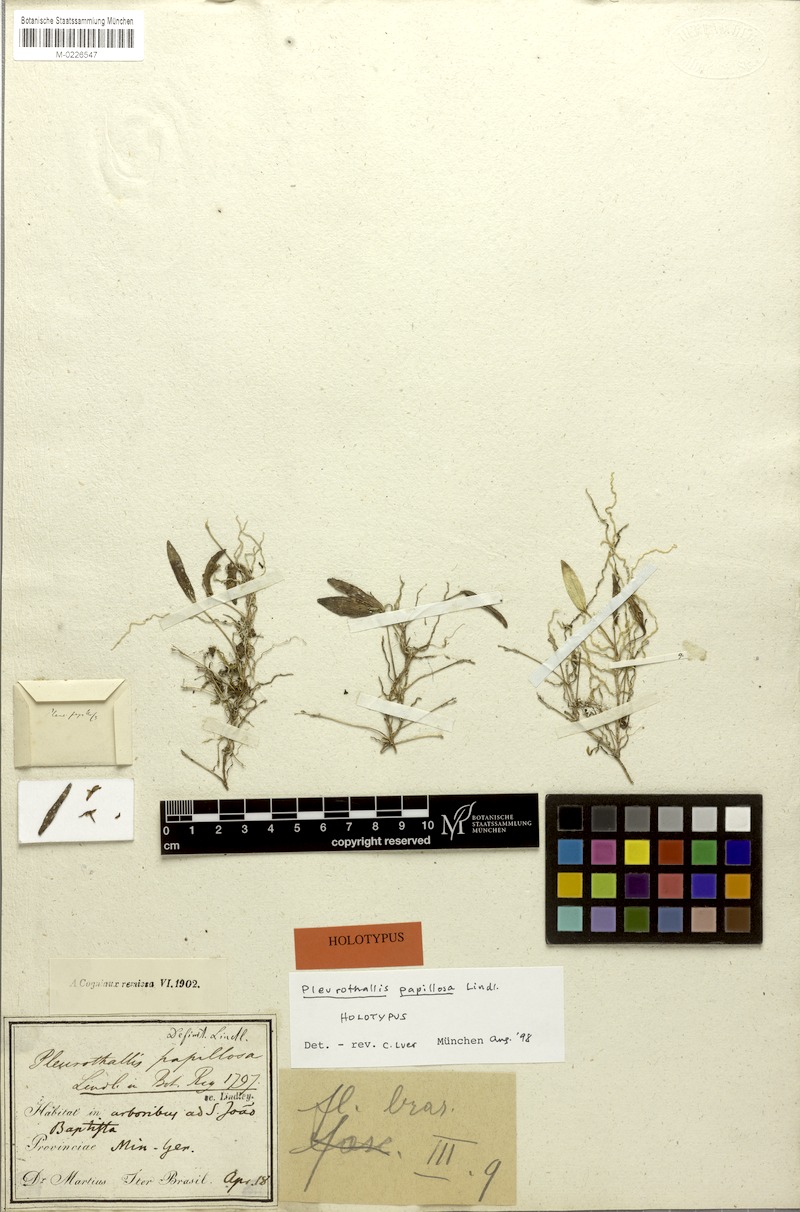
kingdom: Plantae
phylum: Tracheophyta
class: Liliopsida
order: Asparagales
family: Orchidaceae
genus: Acianthera
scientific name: Acianthera papillosa
